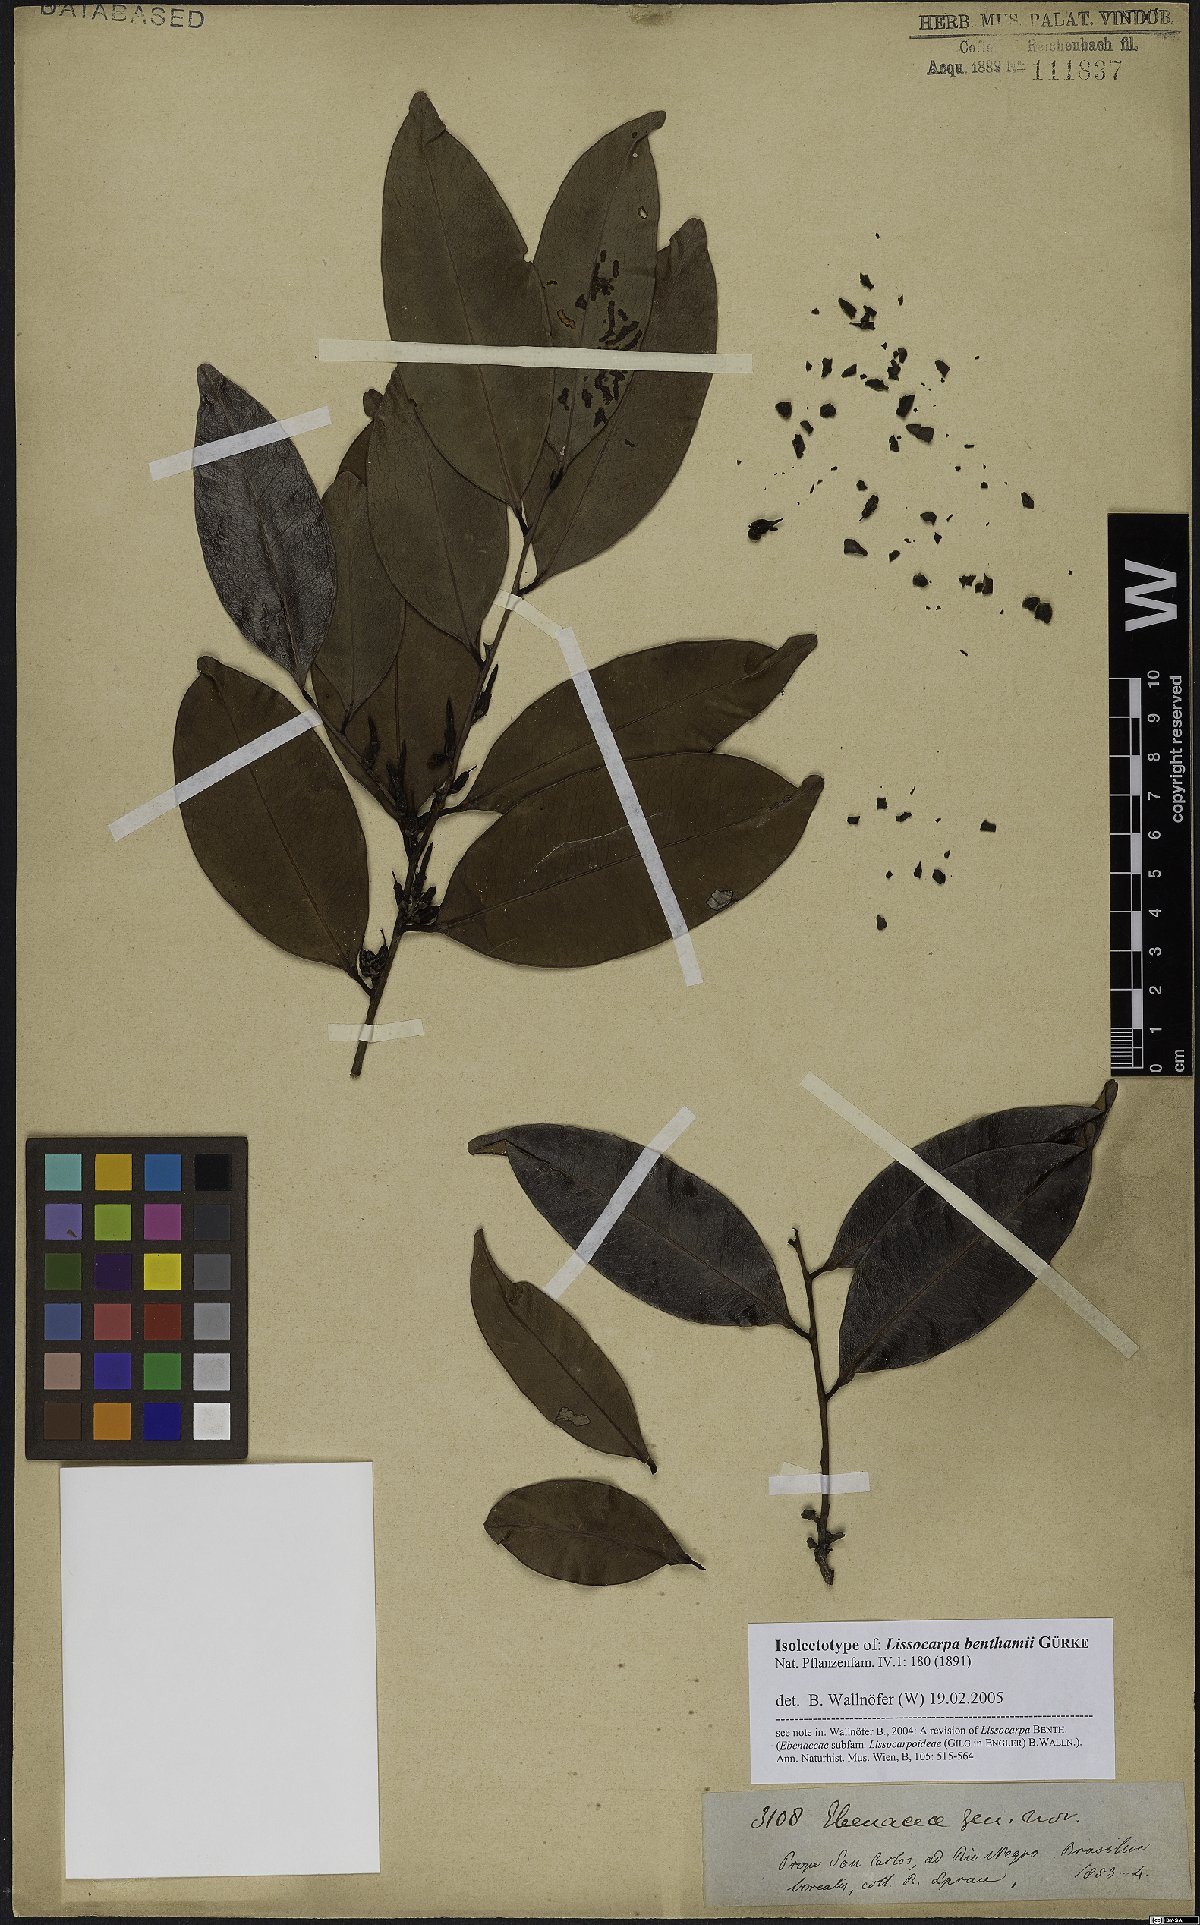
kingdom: Plantae
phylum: Tracheophyta
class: Magnoliopsida
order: Ericales
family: Ebenaceae
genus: Lissocarpa
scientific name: Lissocarpa benthamii
